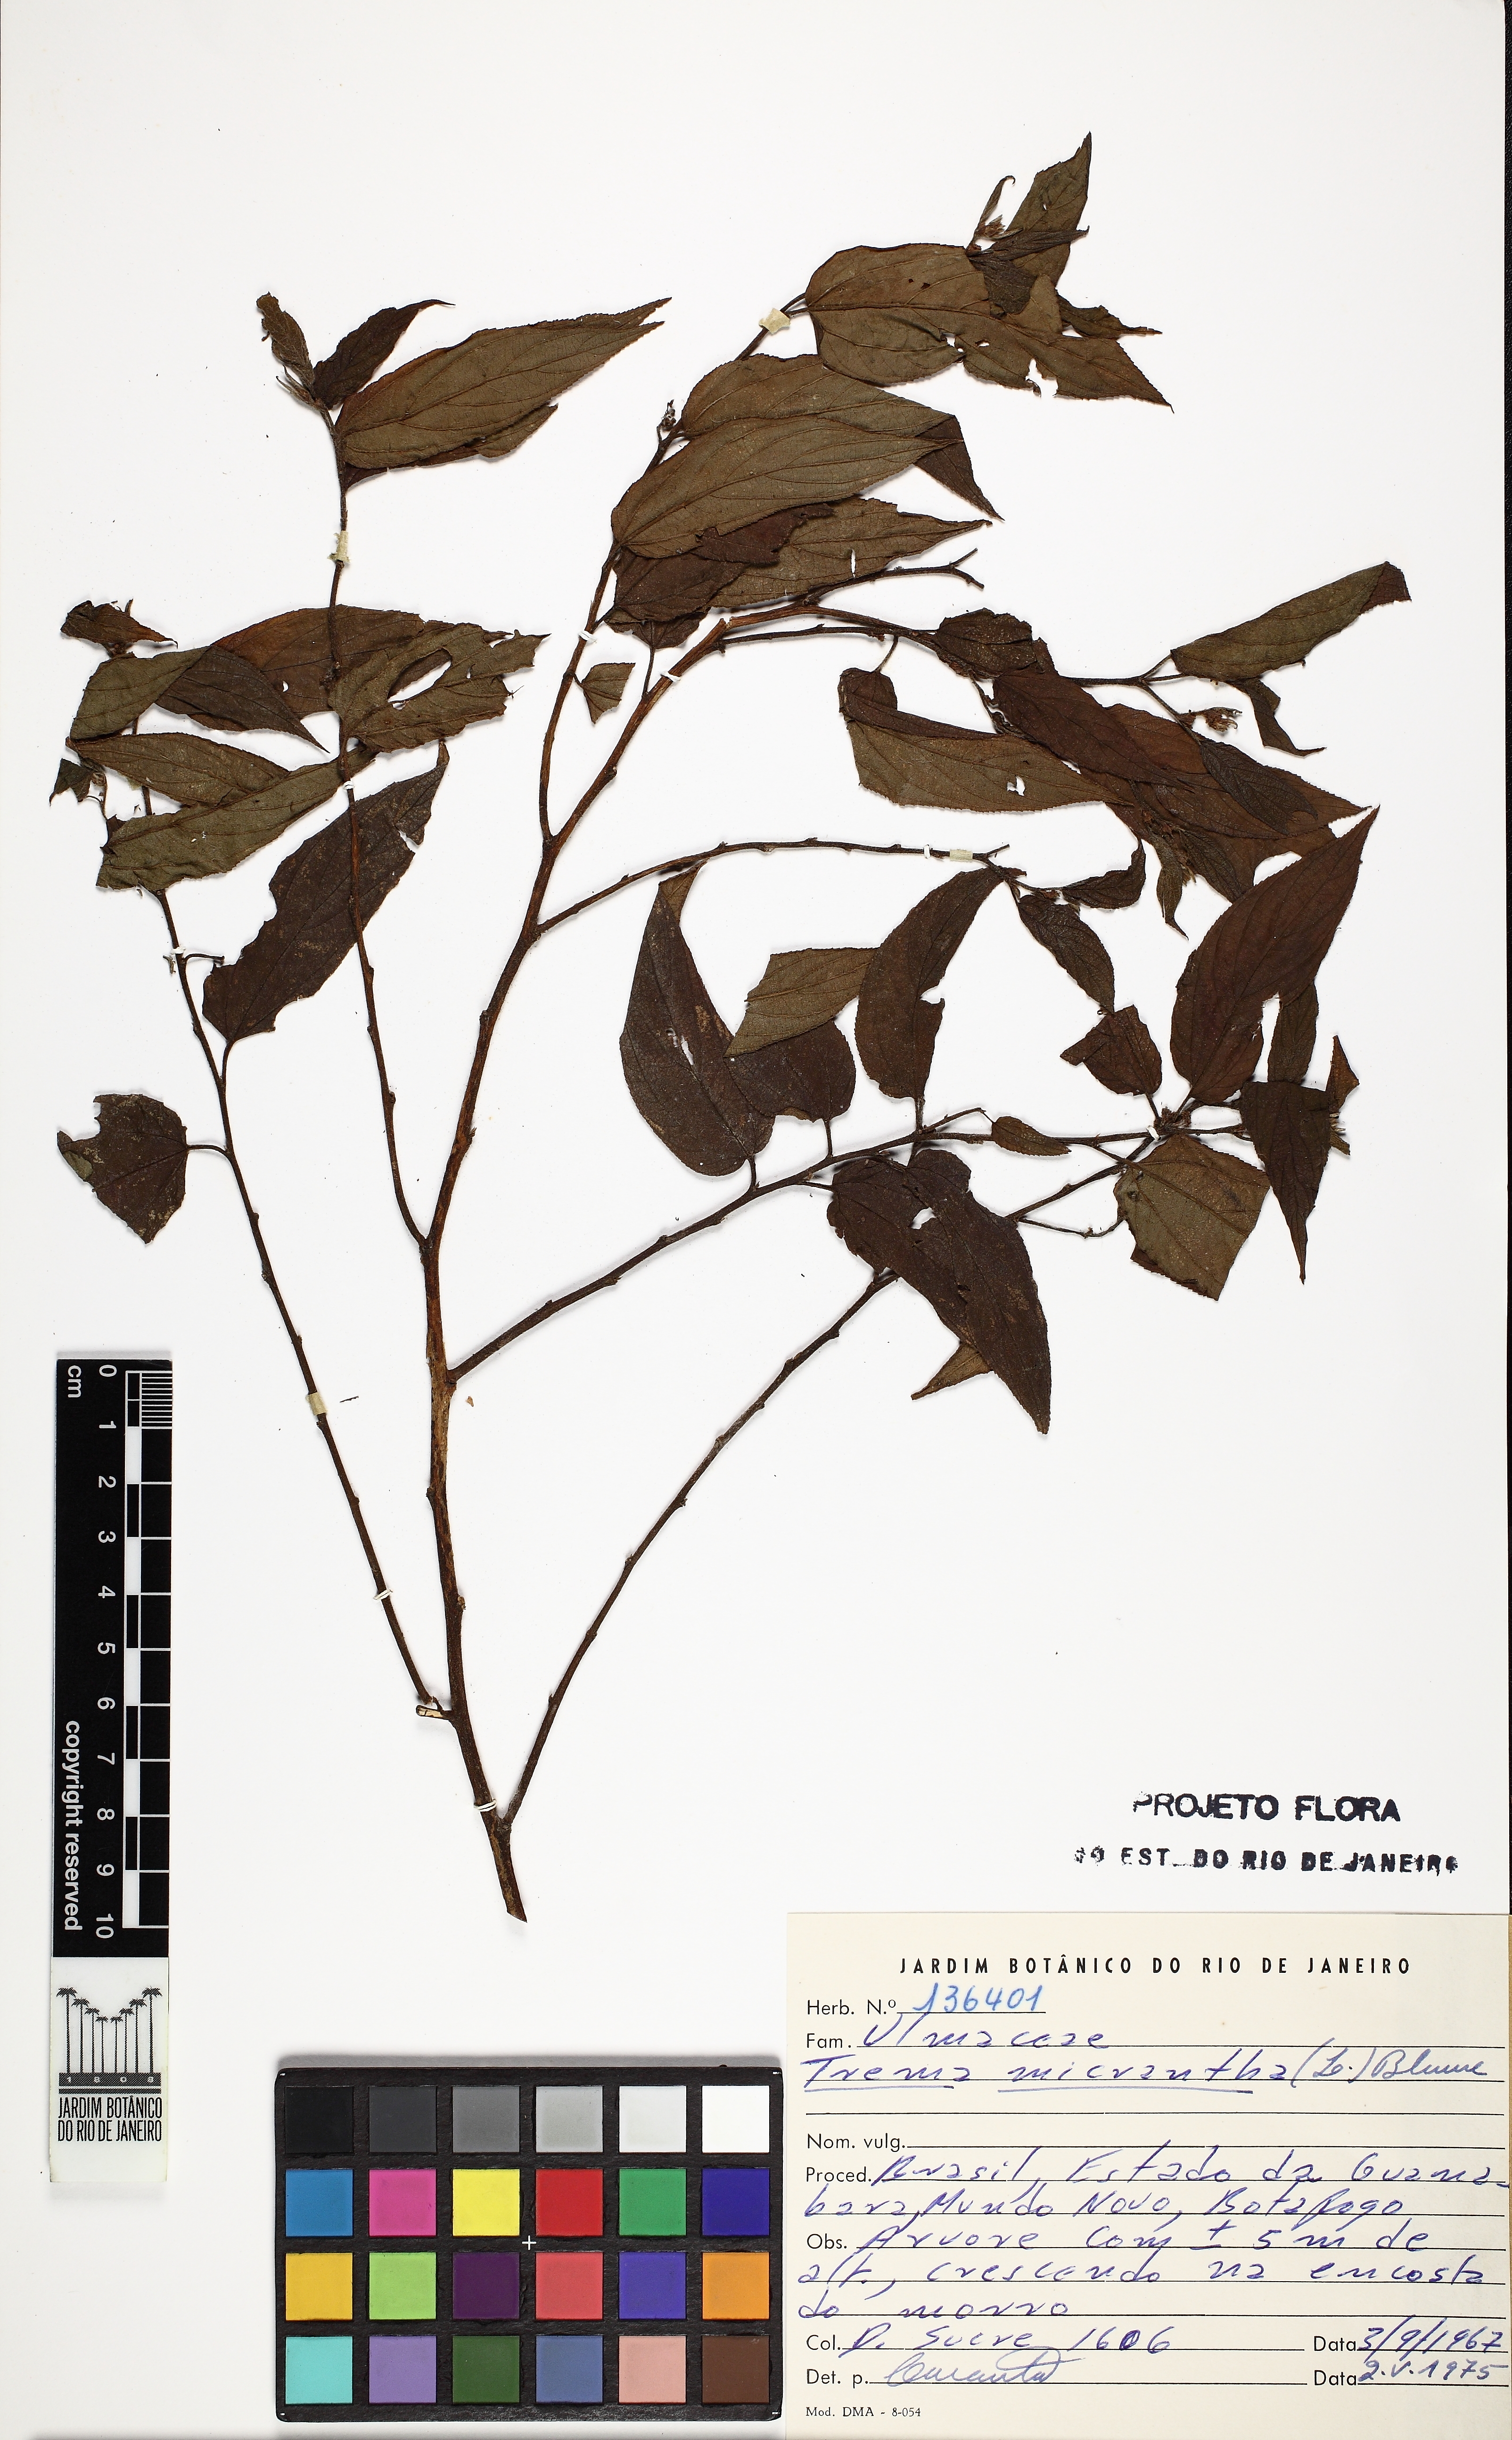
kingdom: Plantae
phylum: Tracheophyta
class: Magnoliopsida
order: Rosales
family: Cannabaceae
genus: Trema
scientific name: Trema micranthum
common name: Jamaican nettletree
